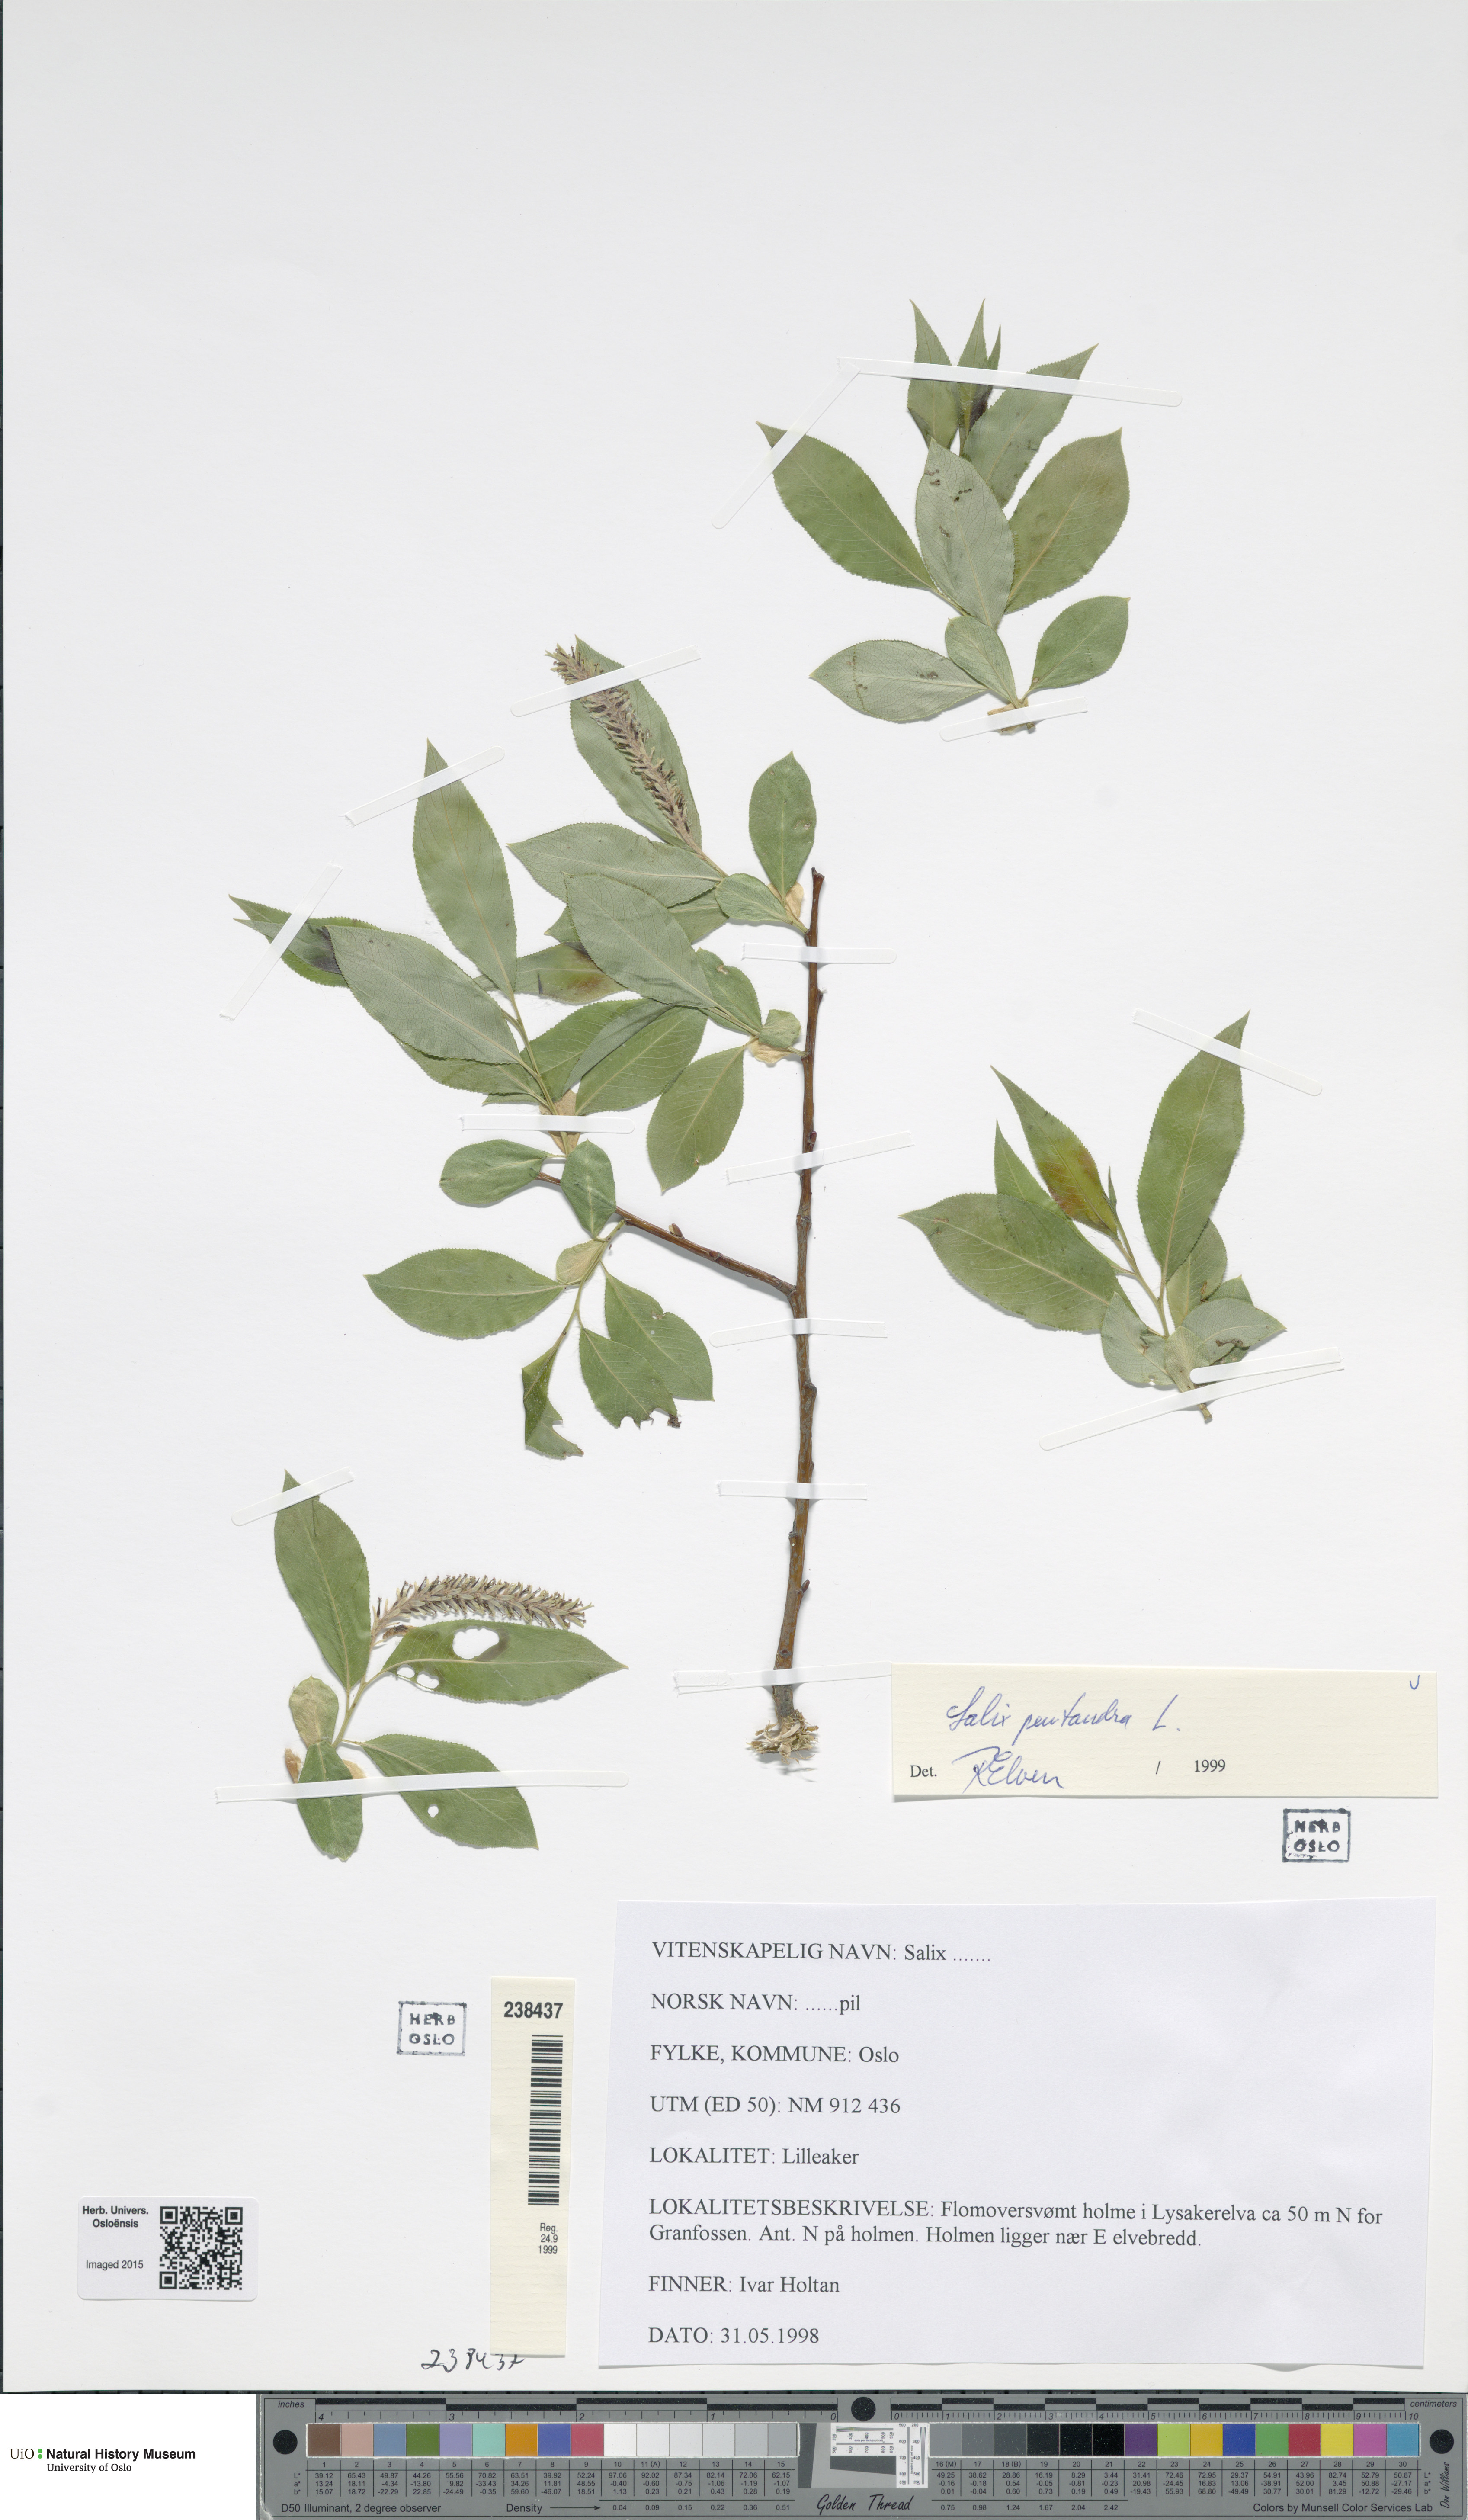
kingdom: Plantae
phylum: Tracheophyta
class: Magnoliopsida
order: Malpighiales
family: Salicaceae
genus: Salix
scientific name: Salix pentandra
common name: Bay willow
